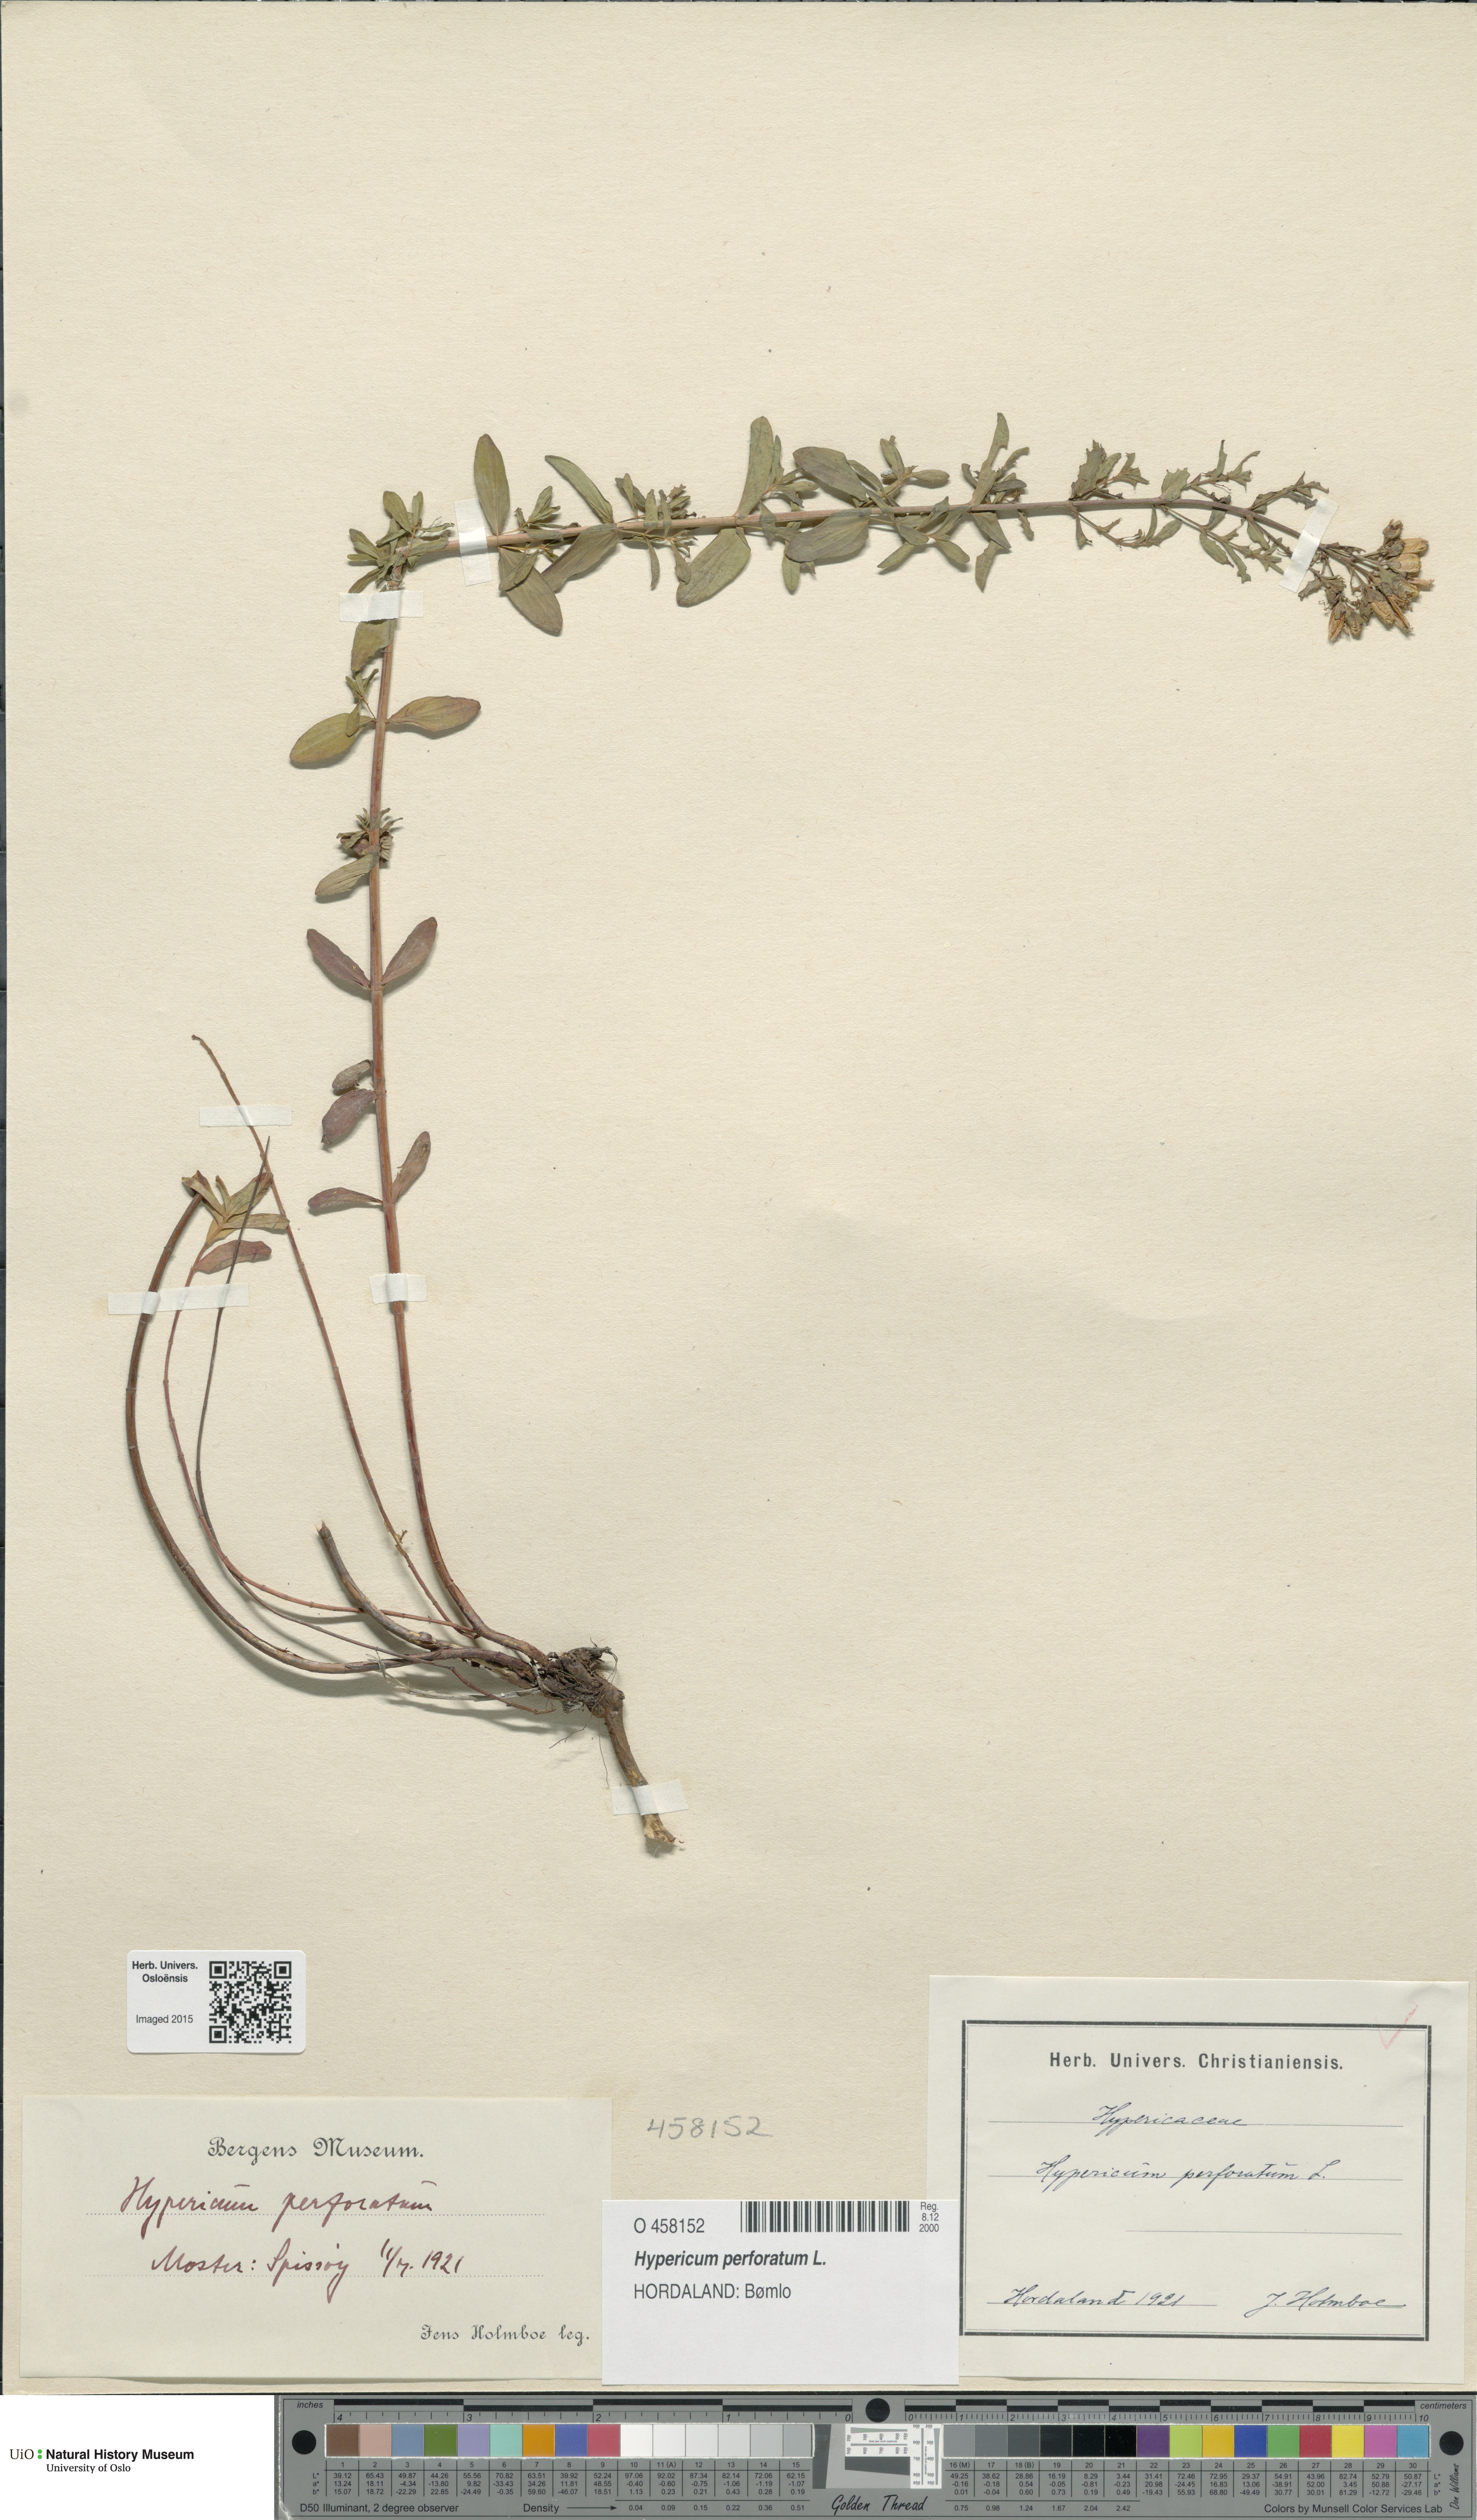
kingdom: Plantae
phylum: Tracheophyta
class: Magnoliopsida
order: Malpighiales
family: Hypericaceae
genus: Hypericum
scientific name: Hypericum perforatum
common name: Common st. johnswort
